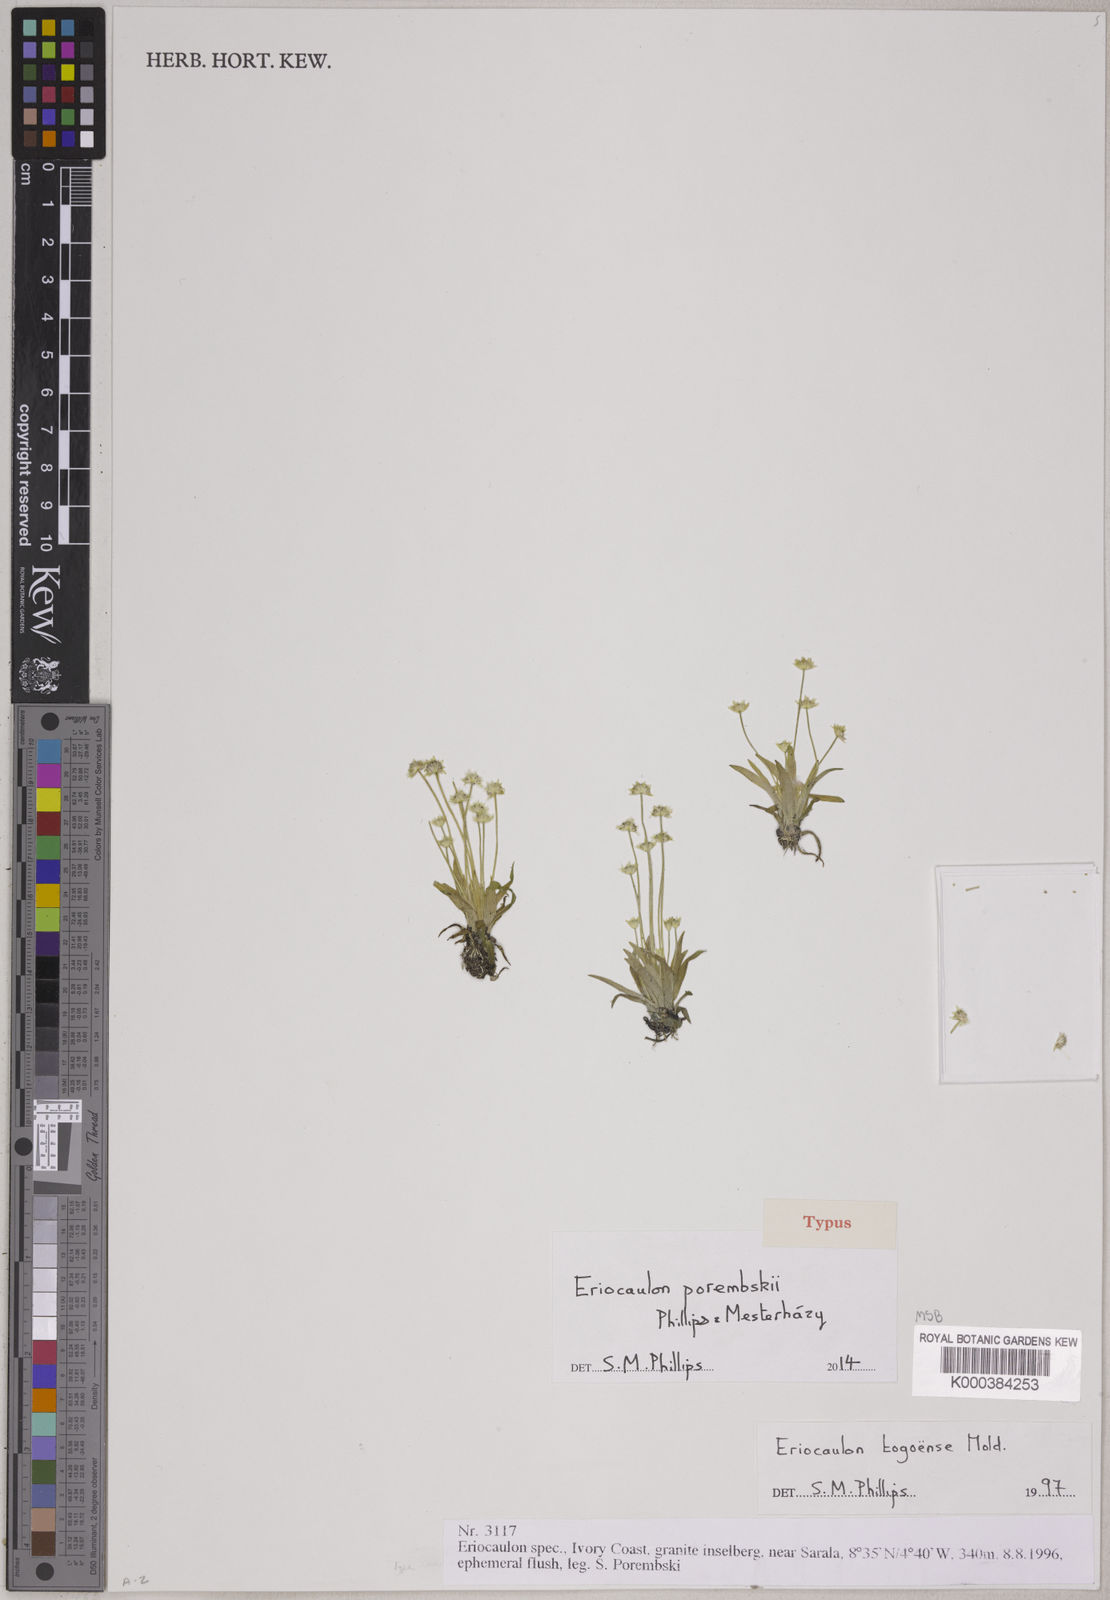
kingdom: Plantae
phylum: Tracheophyta
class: Liliopsida
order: Poales
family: Eriocaulaceae
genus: Eriocaulon
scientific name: Eriocaulon
